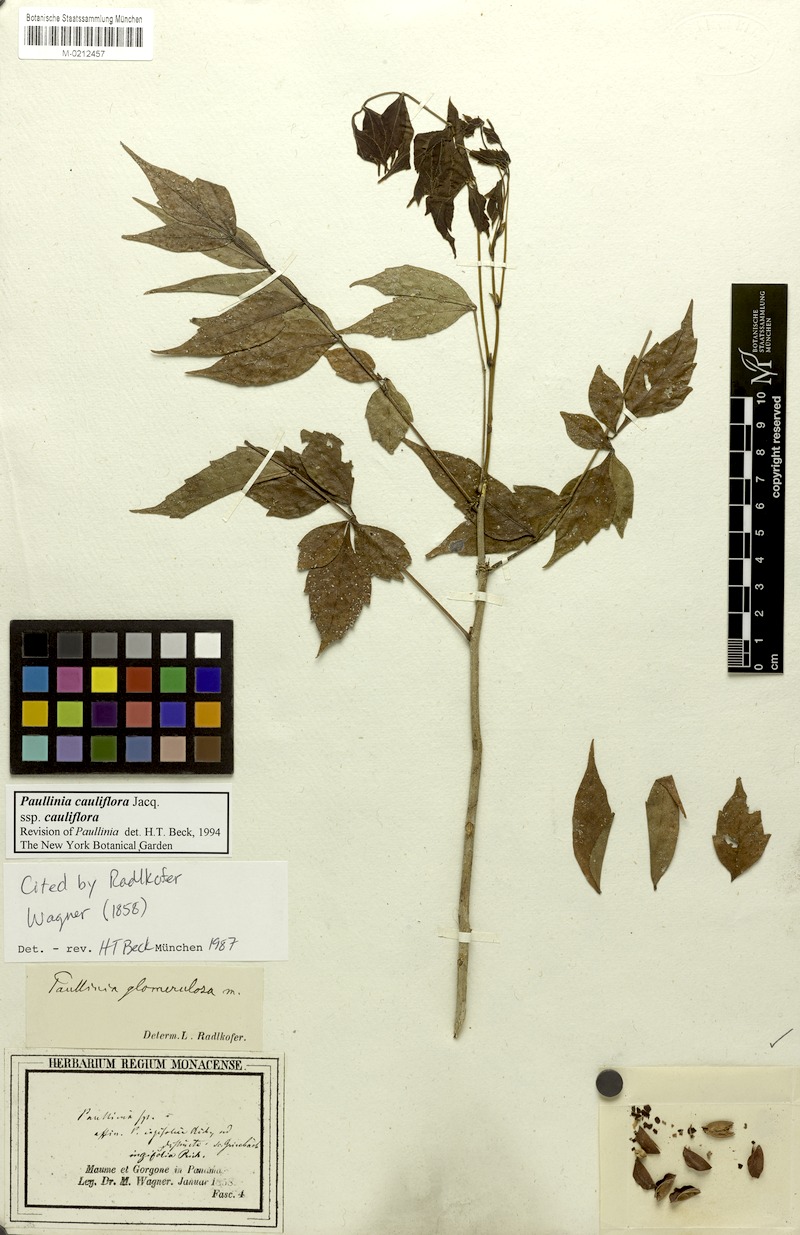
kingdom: Plantae
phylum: Tracheophyta
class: Magnoliopsida
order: Sapindales
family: Sapindaceae
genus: Paullinia
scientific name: Paullinia cauliflora
